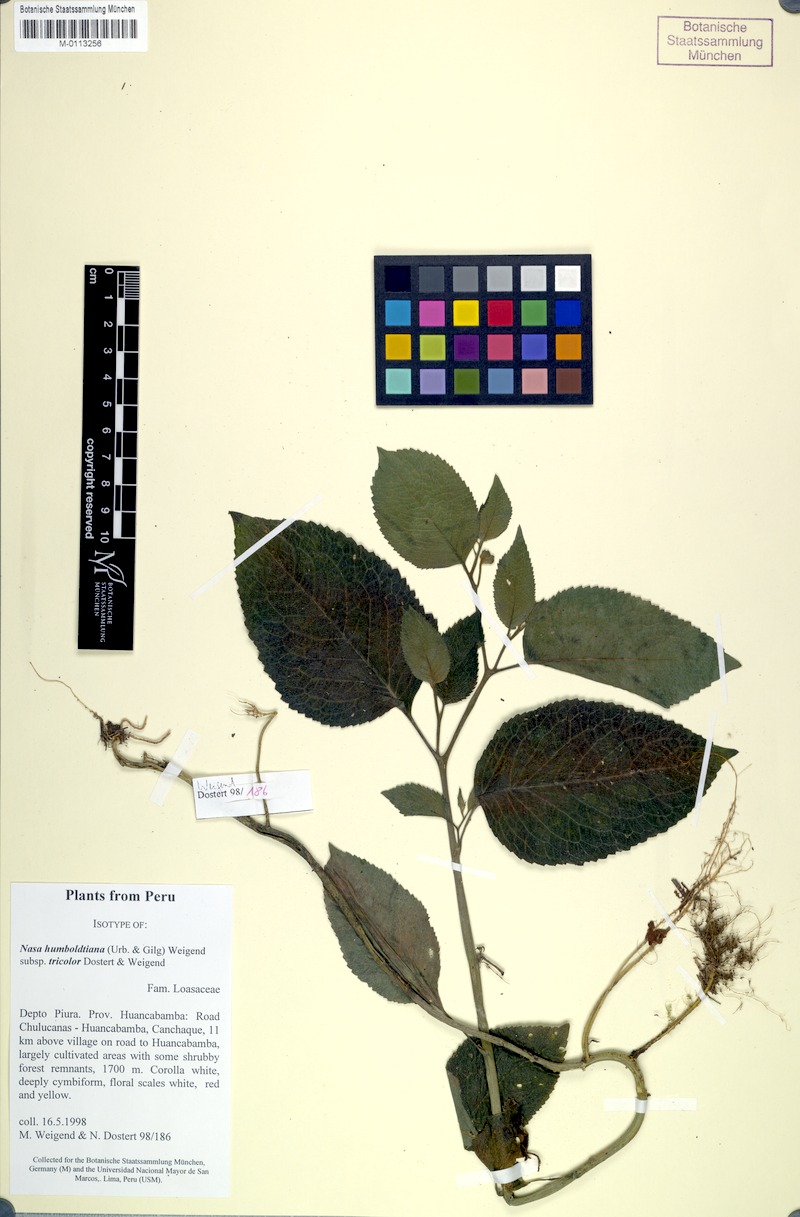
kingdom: Plantae
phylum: Tracheophyta
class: Magnoliopsida
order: Cornales
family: Loasaceae
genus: Nasa
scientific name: Nasa humboldtiana
